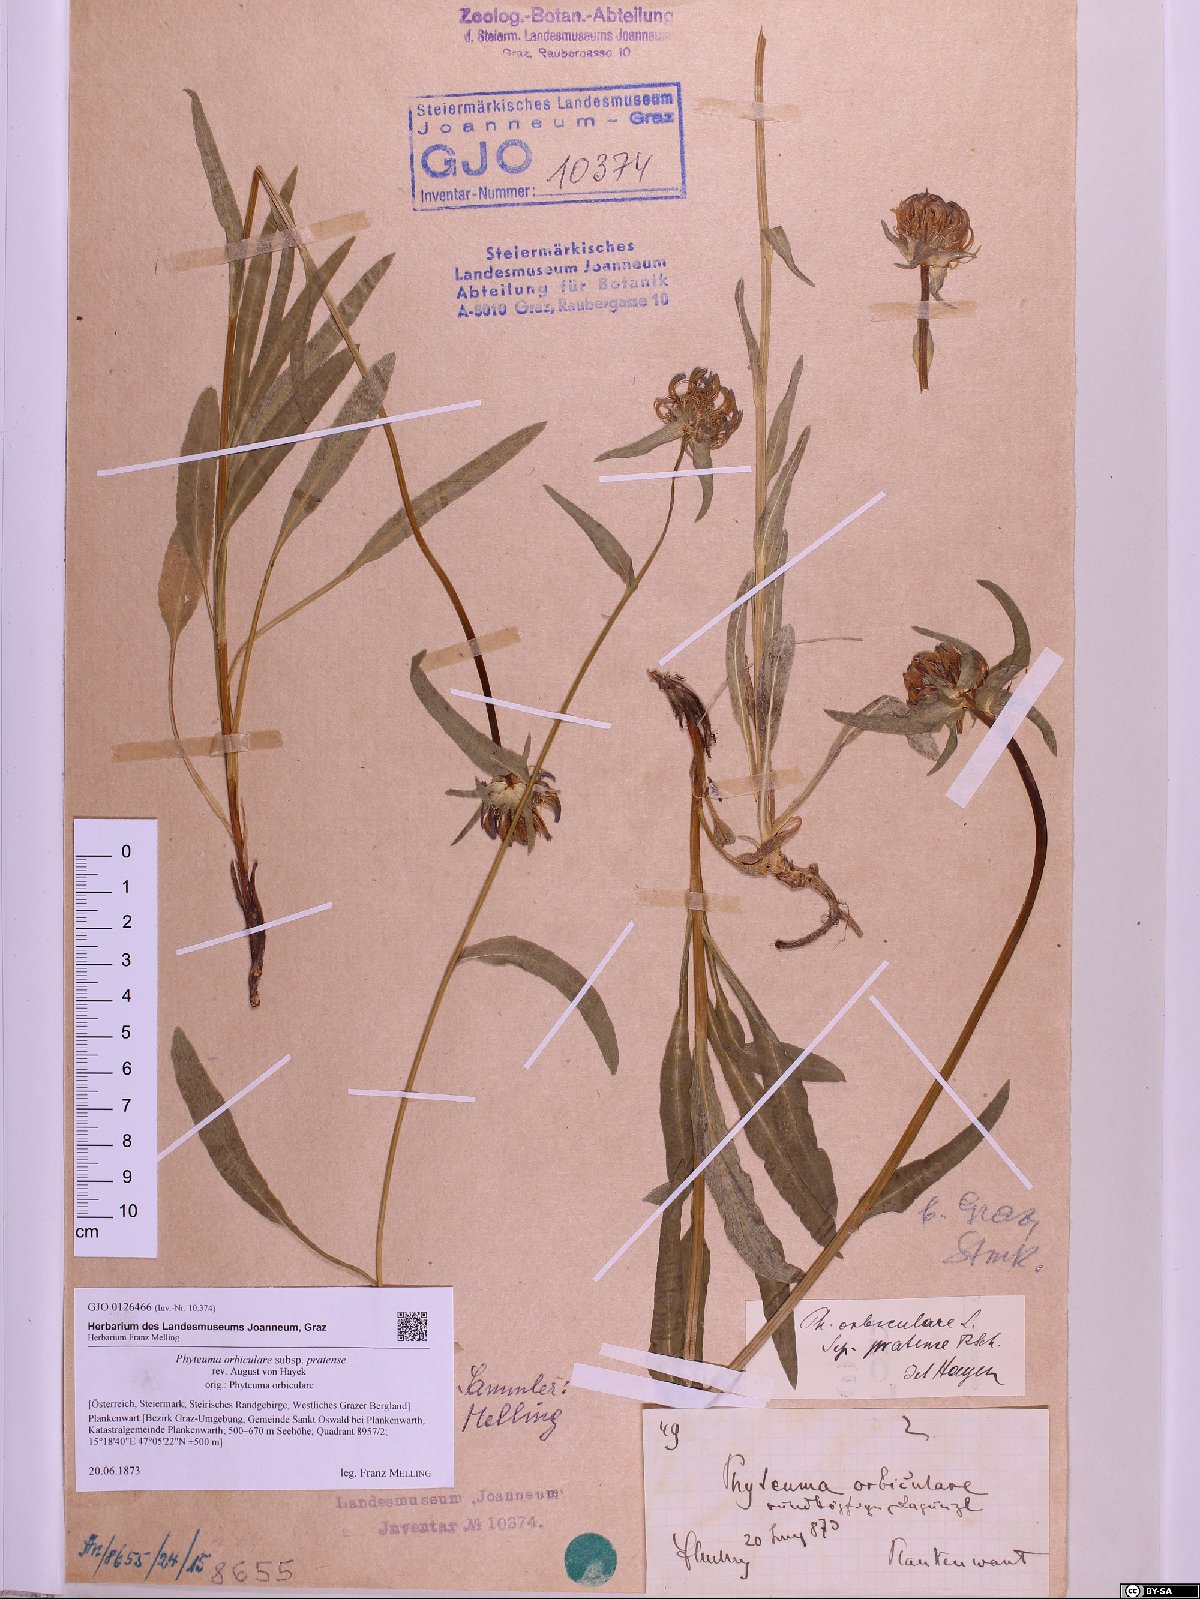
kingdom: Plantae
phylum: Tracheophyta
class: Magnoliopsida
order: Asterales
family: Campanulaceae
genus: Phyteuma
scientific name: Phyteuma orbiculare
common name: Round-headed rampion
